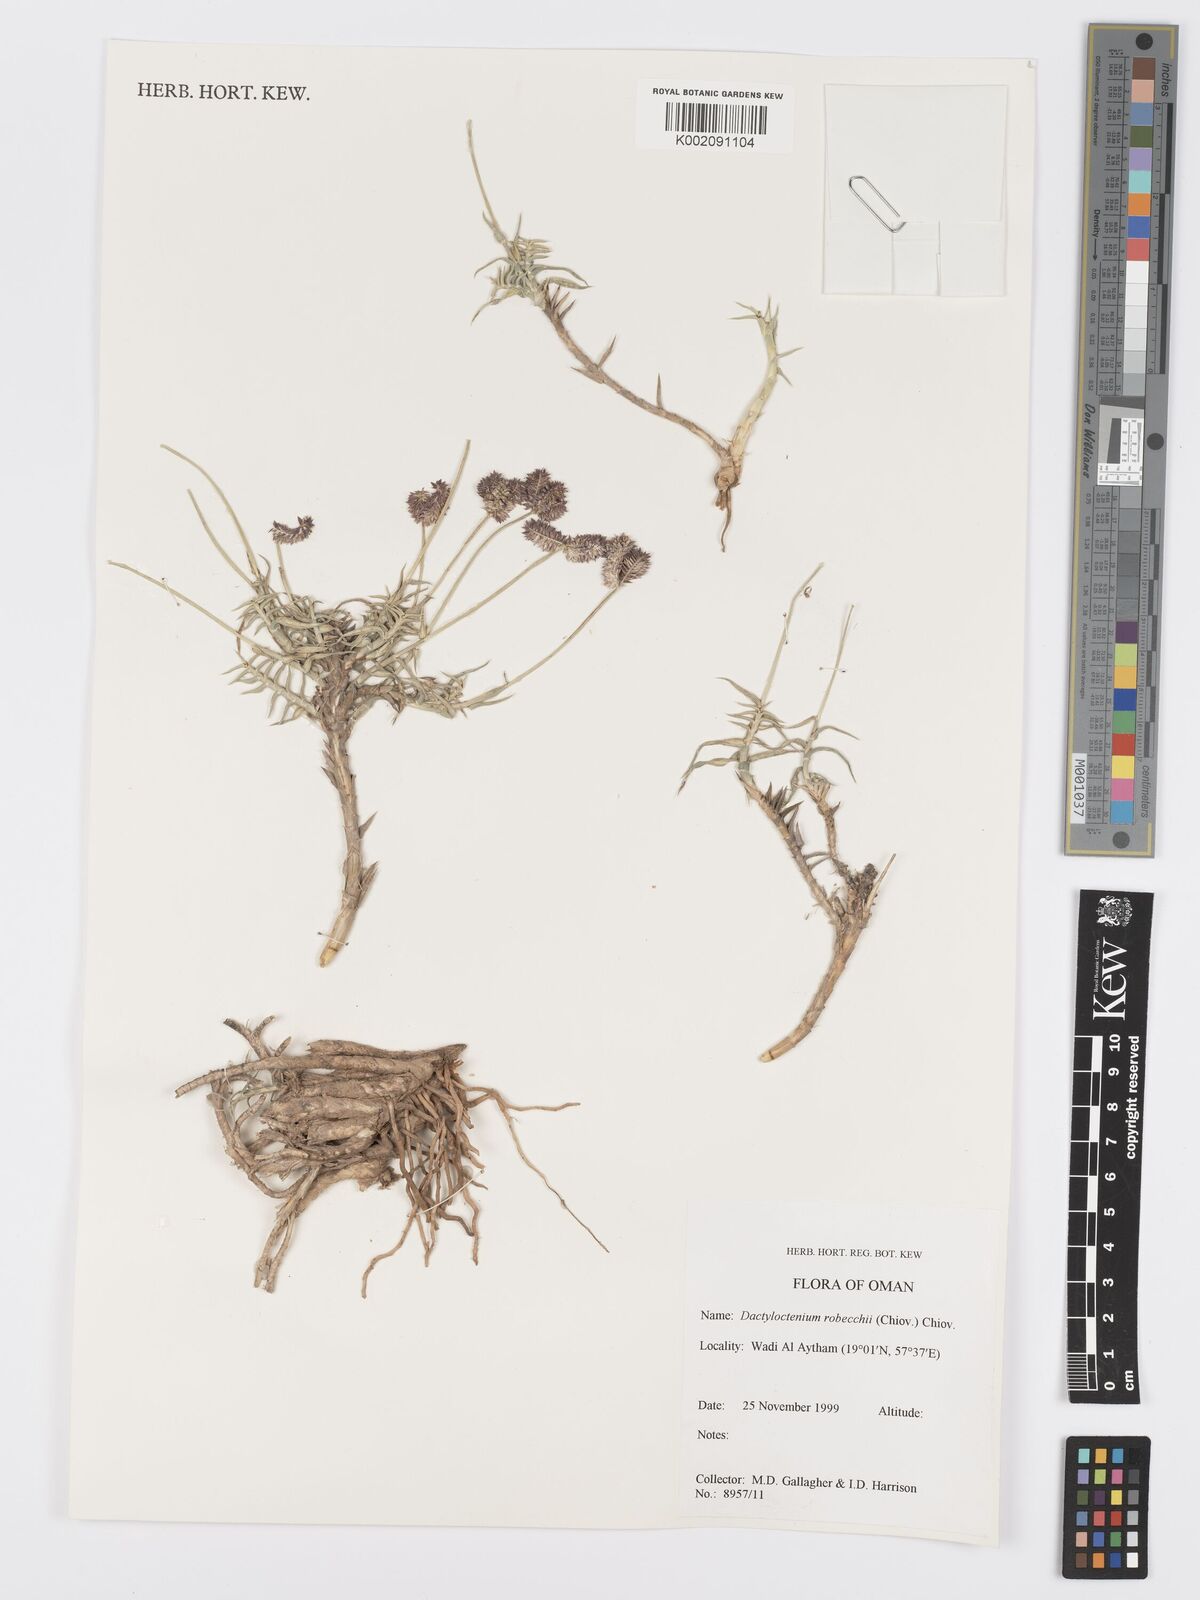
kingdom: Plantae
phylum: Tracheophyta
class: Liliopsida
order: Poales
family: Poaceae
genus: Dactyloctenium
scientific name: Dactyloctenium robecchii
